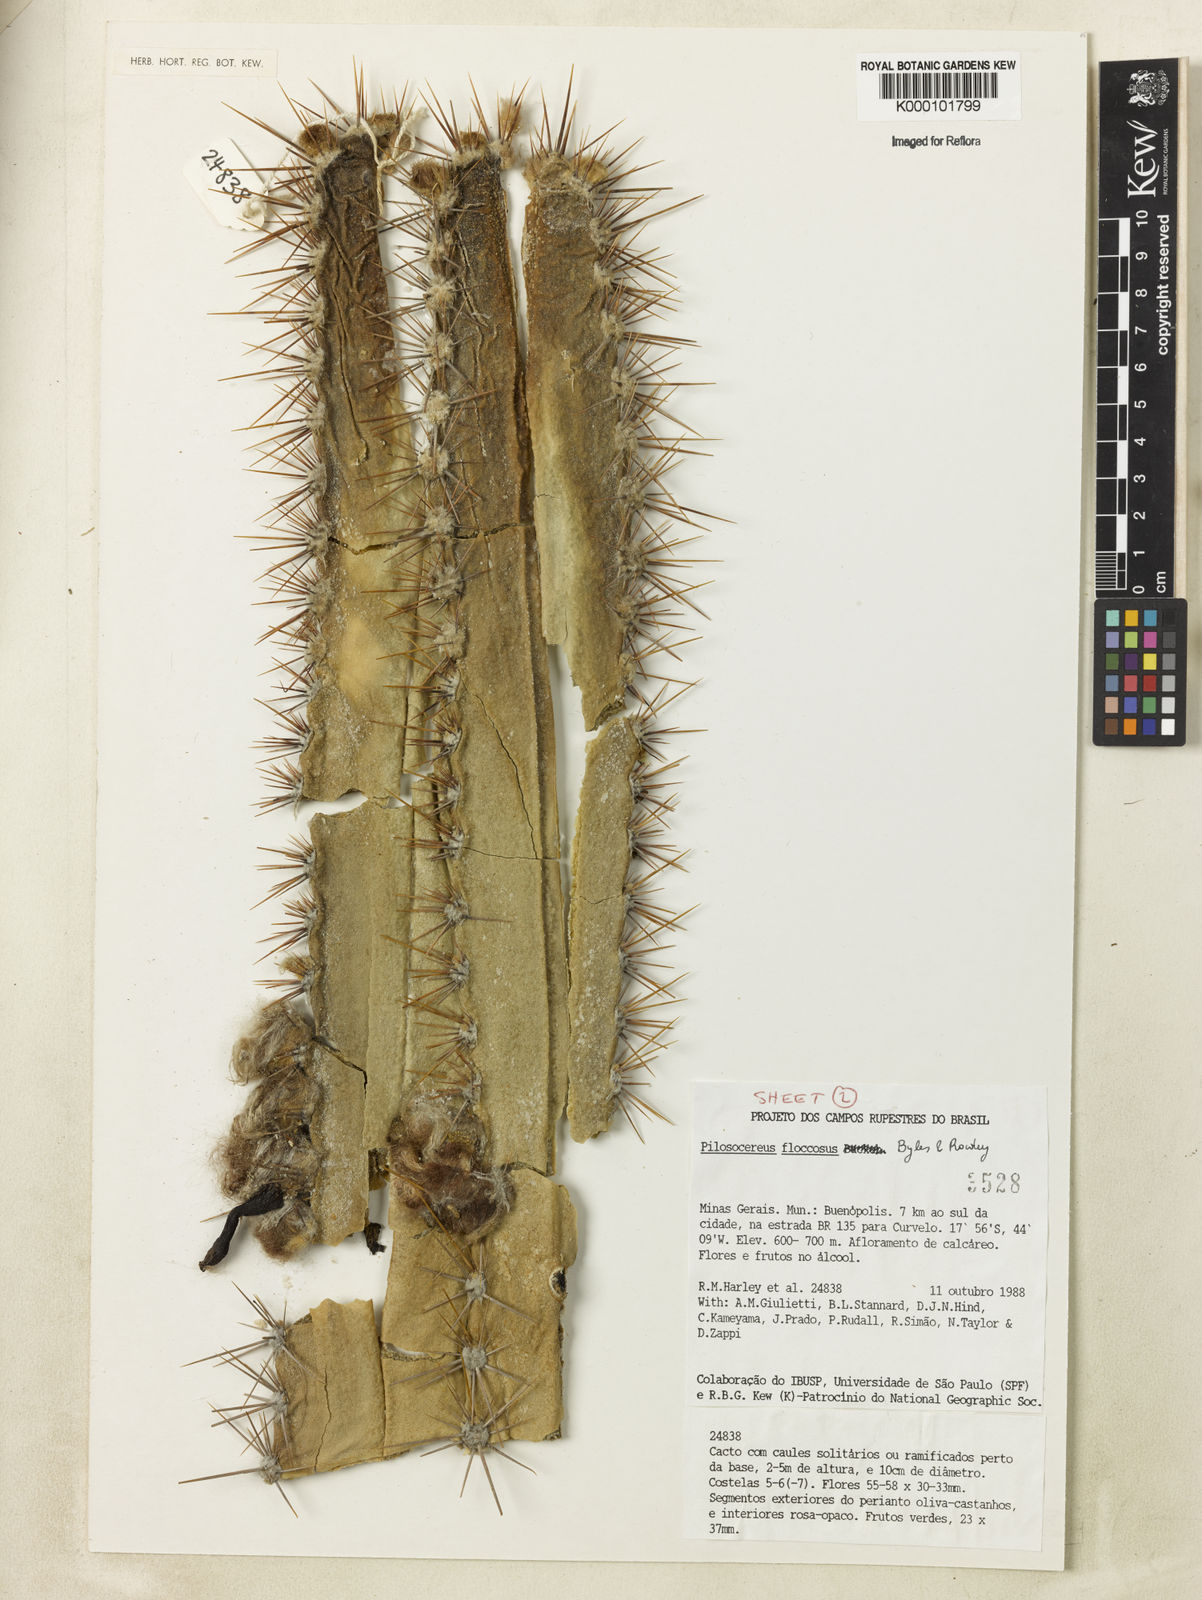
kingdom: Plantae
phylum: Tracheophyta
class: Magnoliopsida
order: Caryophyllales
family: Cactaceae
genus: Pilosocereus
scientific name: Pilosocereus floccosus
